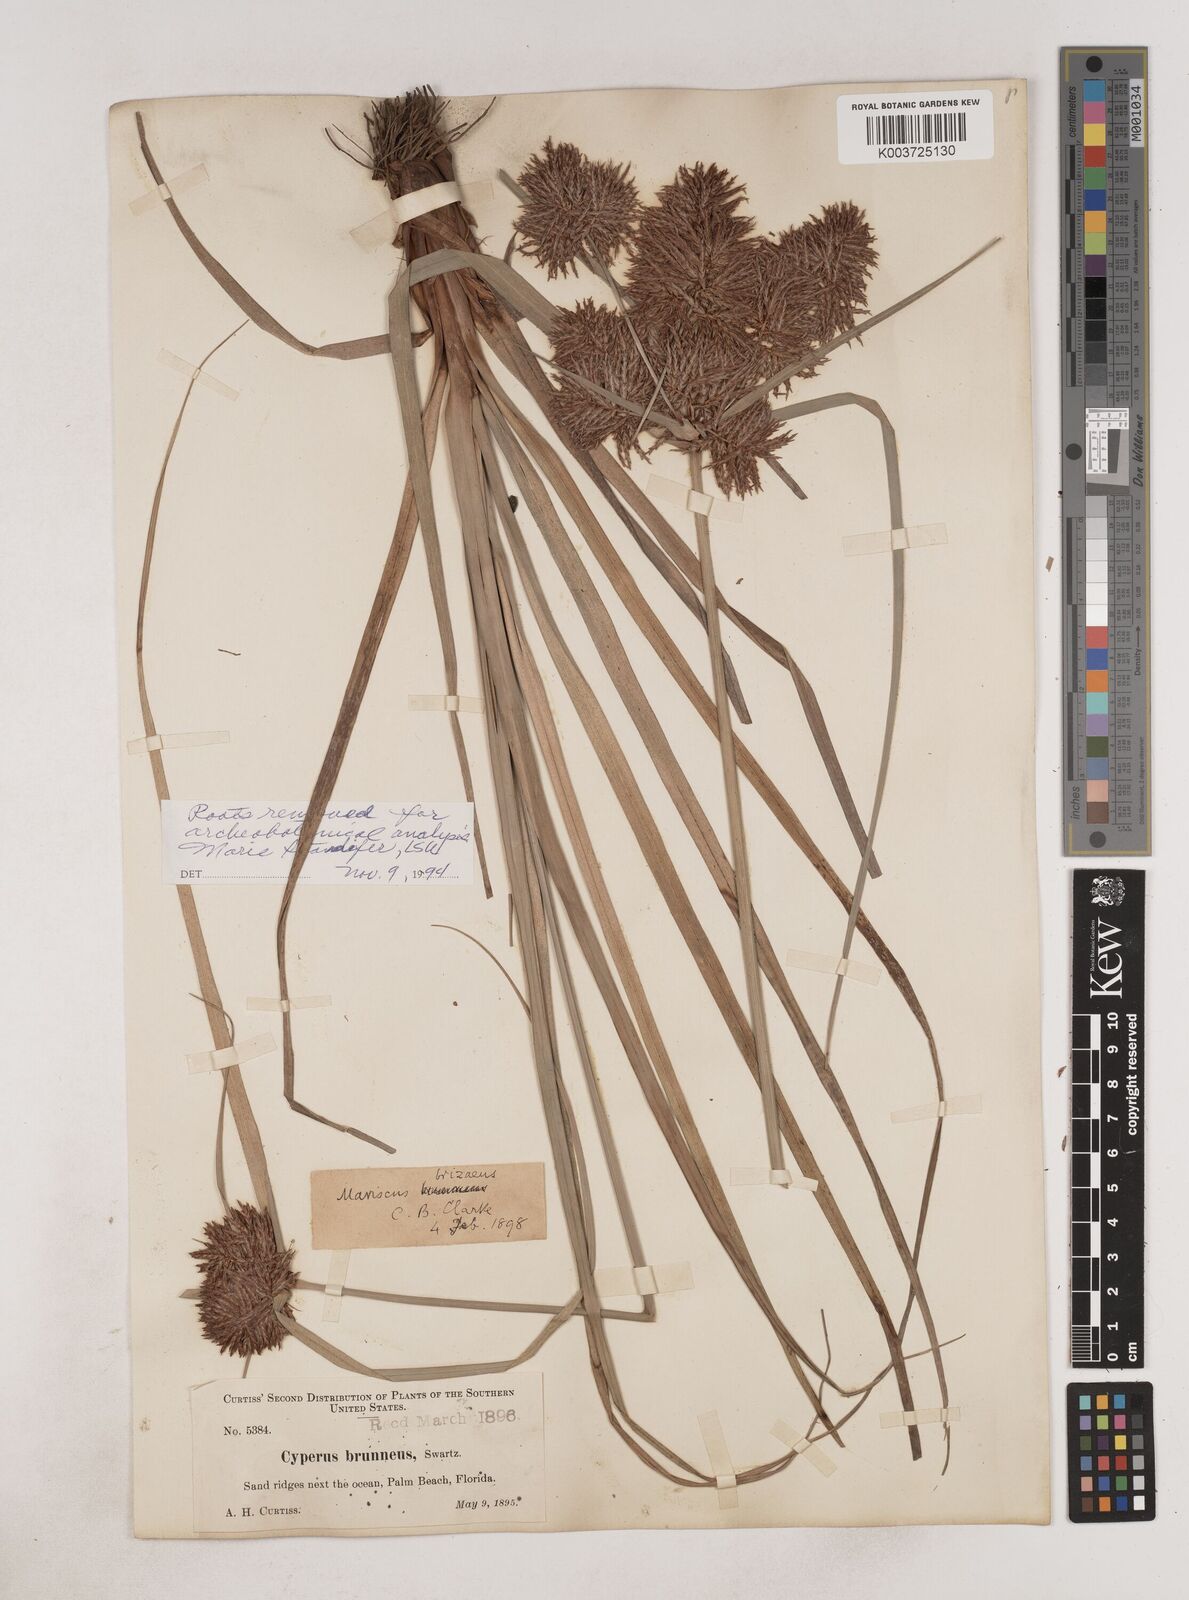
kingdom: Plantae
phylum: Tracheophyta
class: Liliopsida
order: Poales
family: Cyperaceae
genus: Cyperus
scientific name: Cyperus brunneus
